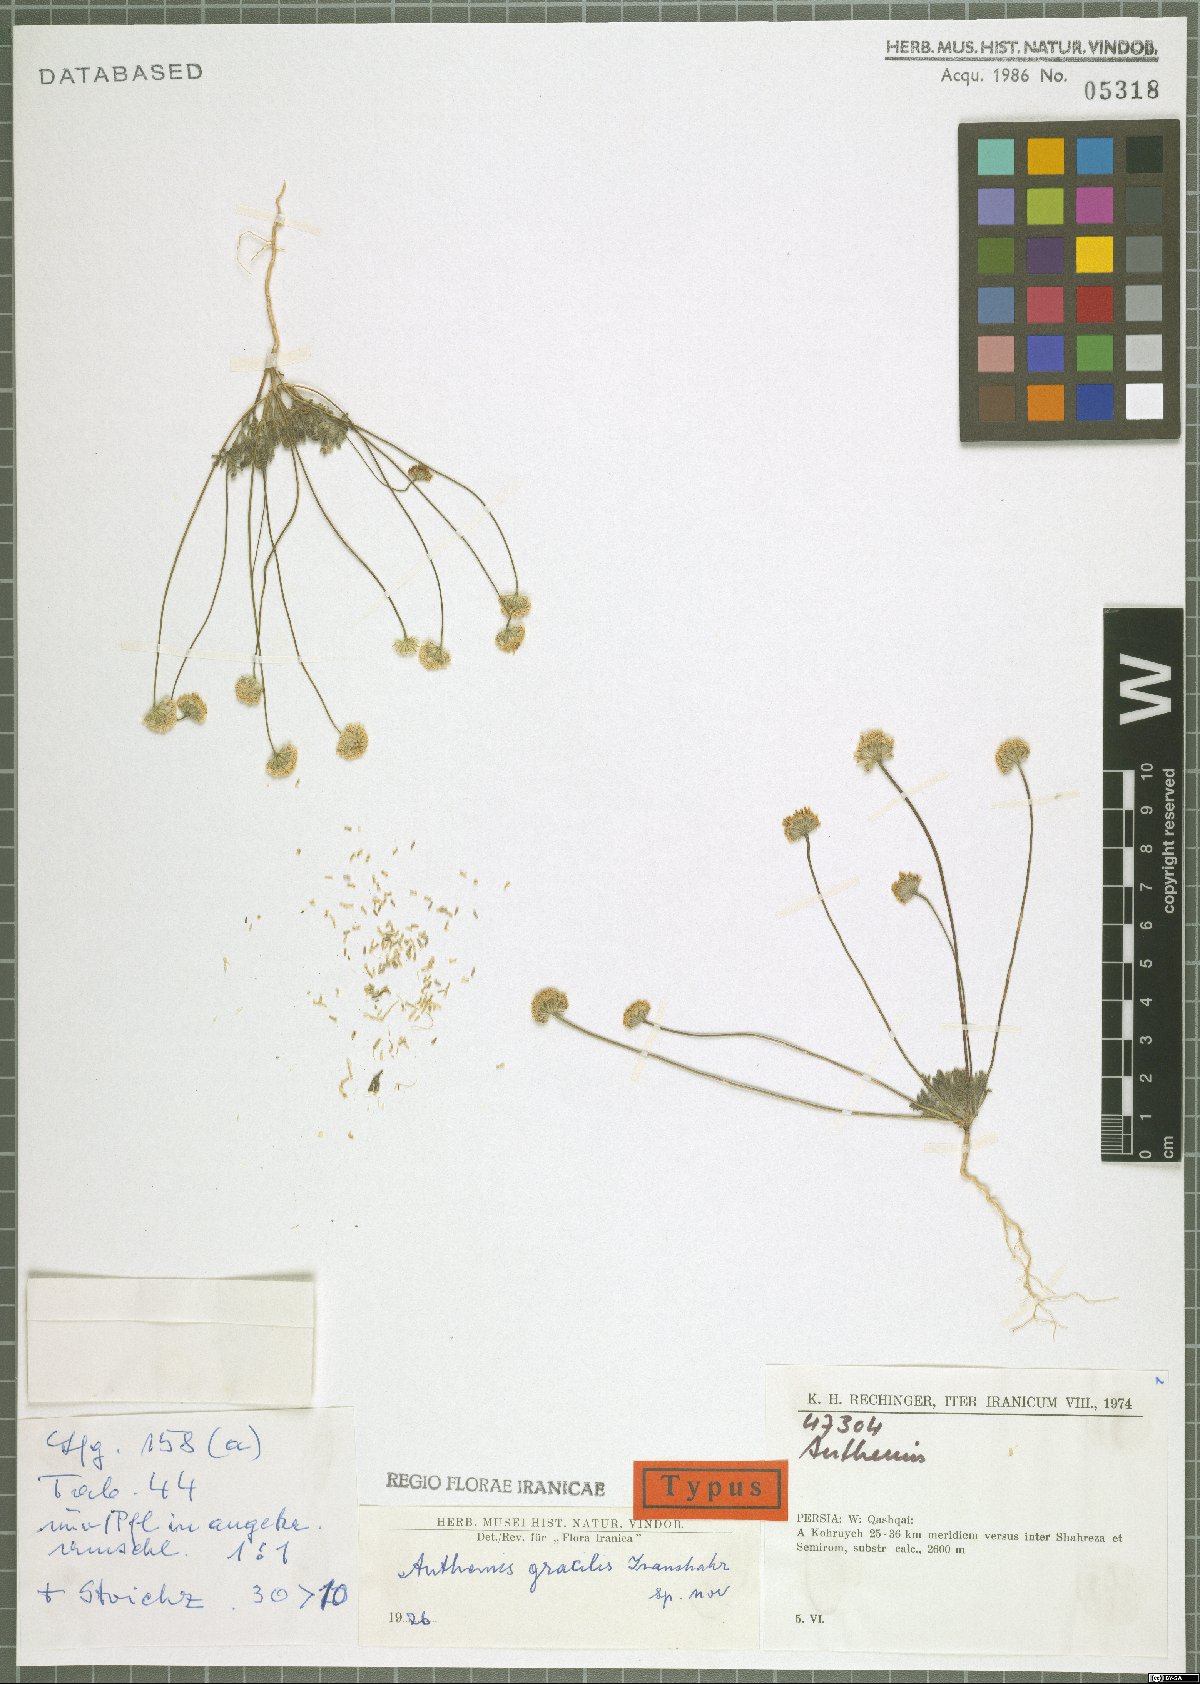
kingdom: Plantae
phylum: Tracheophyta
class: Magnoliopsida
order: Asterales
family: Asteraceae
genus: Anthemis
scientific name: Anthemis gracilis
